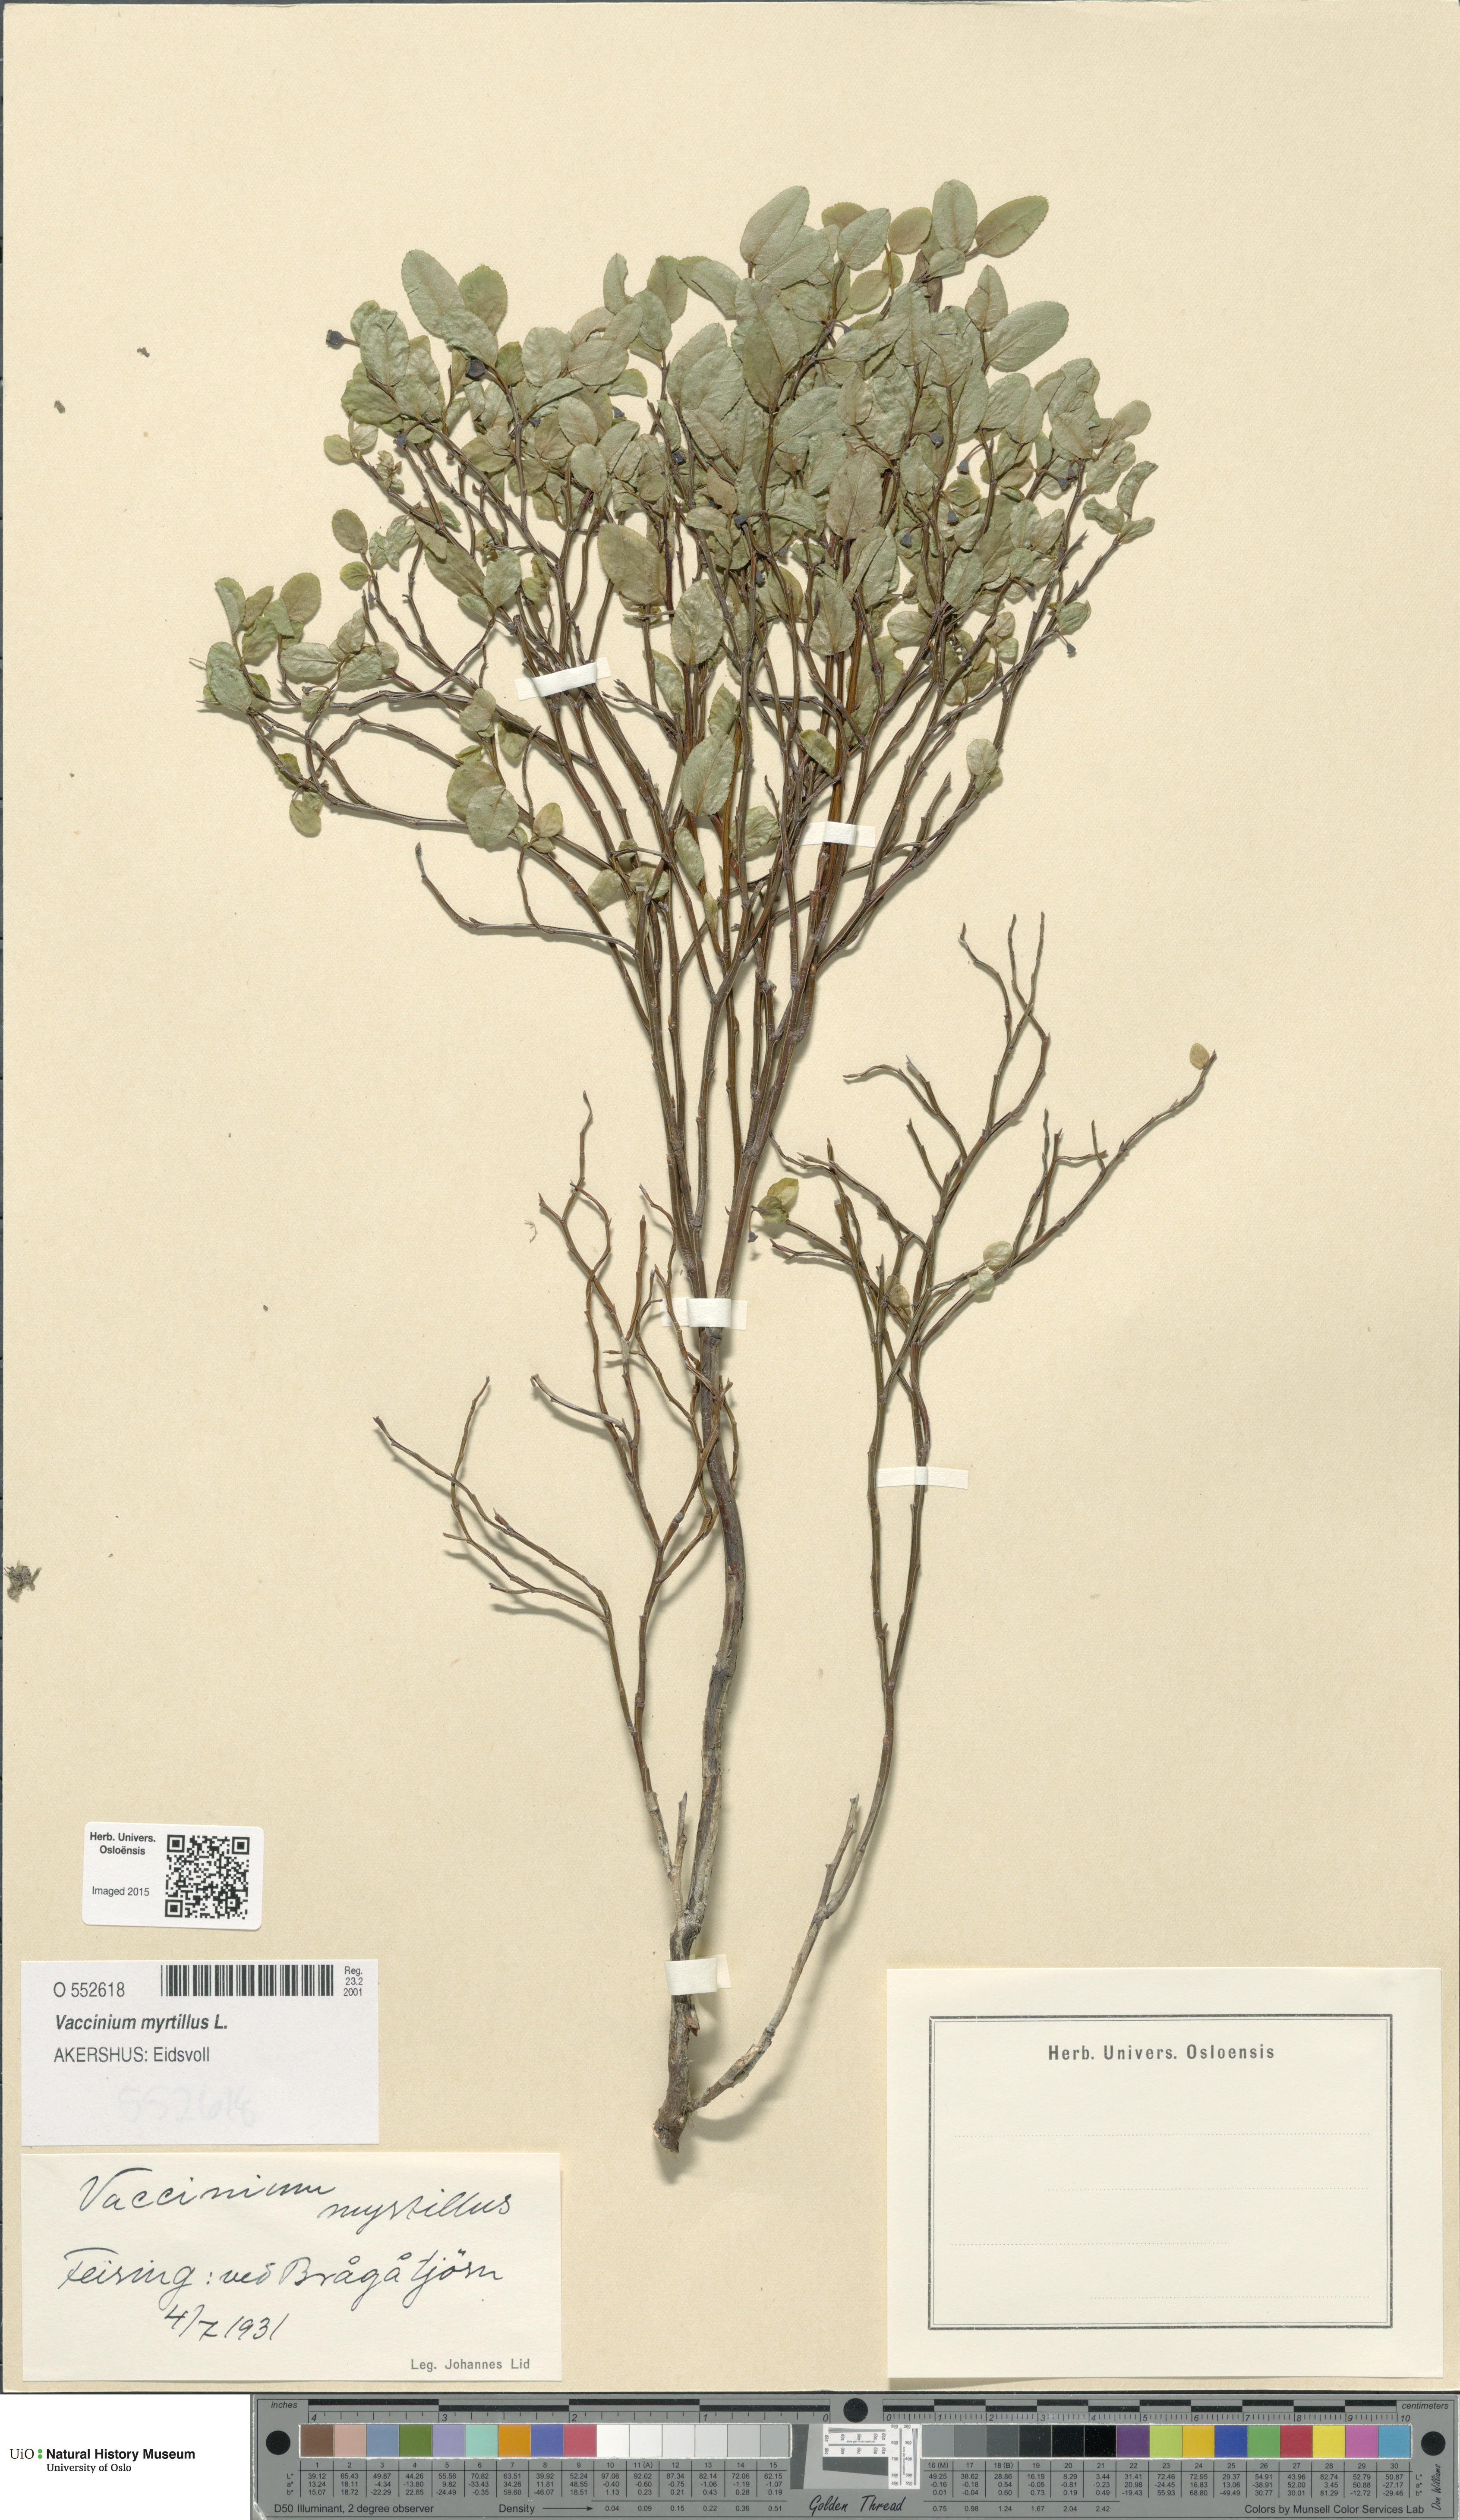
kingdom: Plantae
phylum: Tracheophyta
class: Magnoliopsida
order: Ericales
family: Ericaceae
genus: Vaccinium
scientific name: Vaccinium myrtillus
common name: Bilberry
